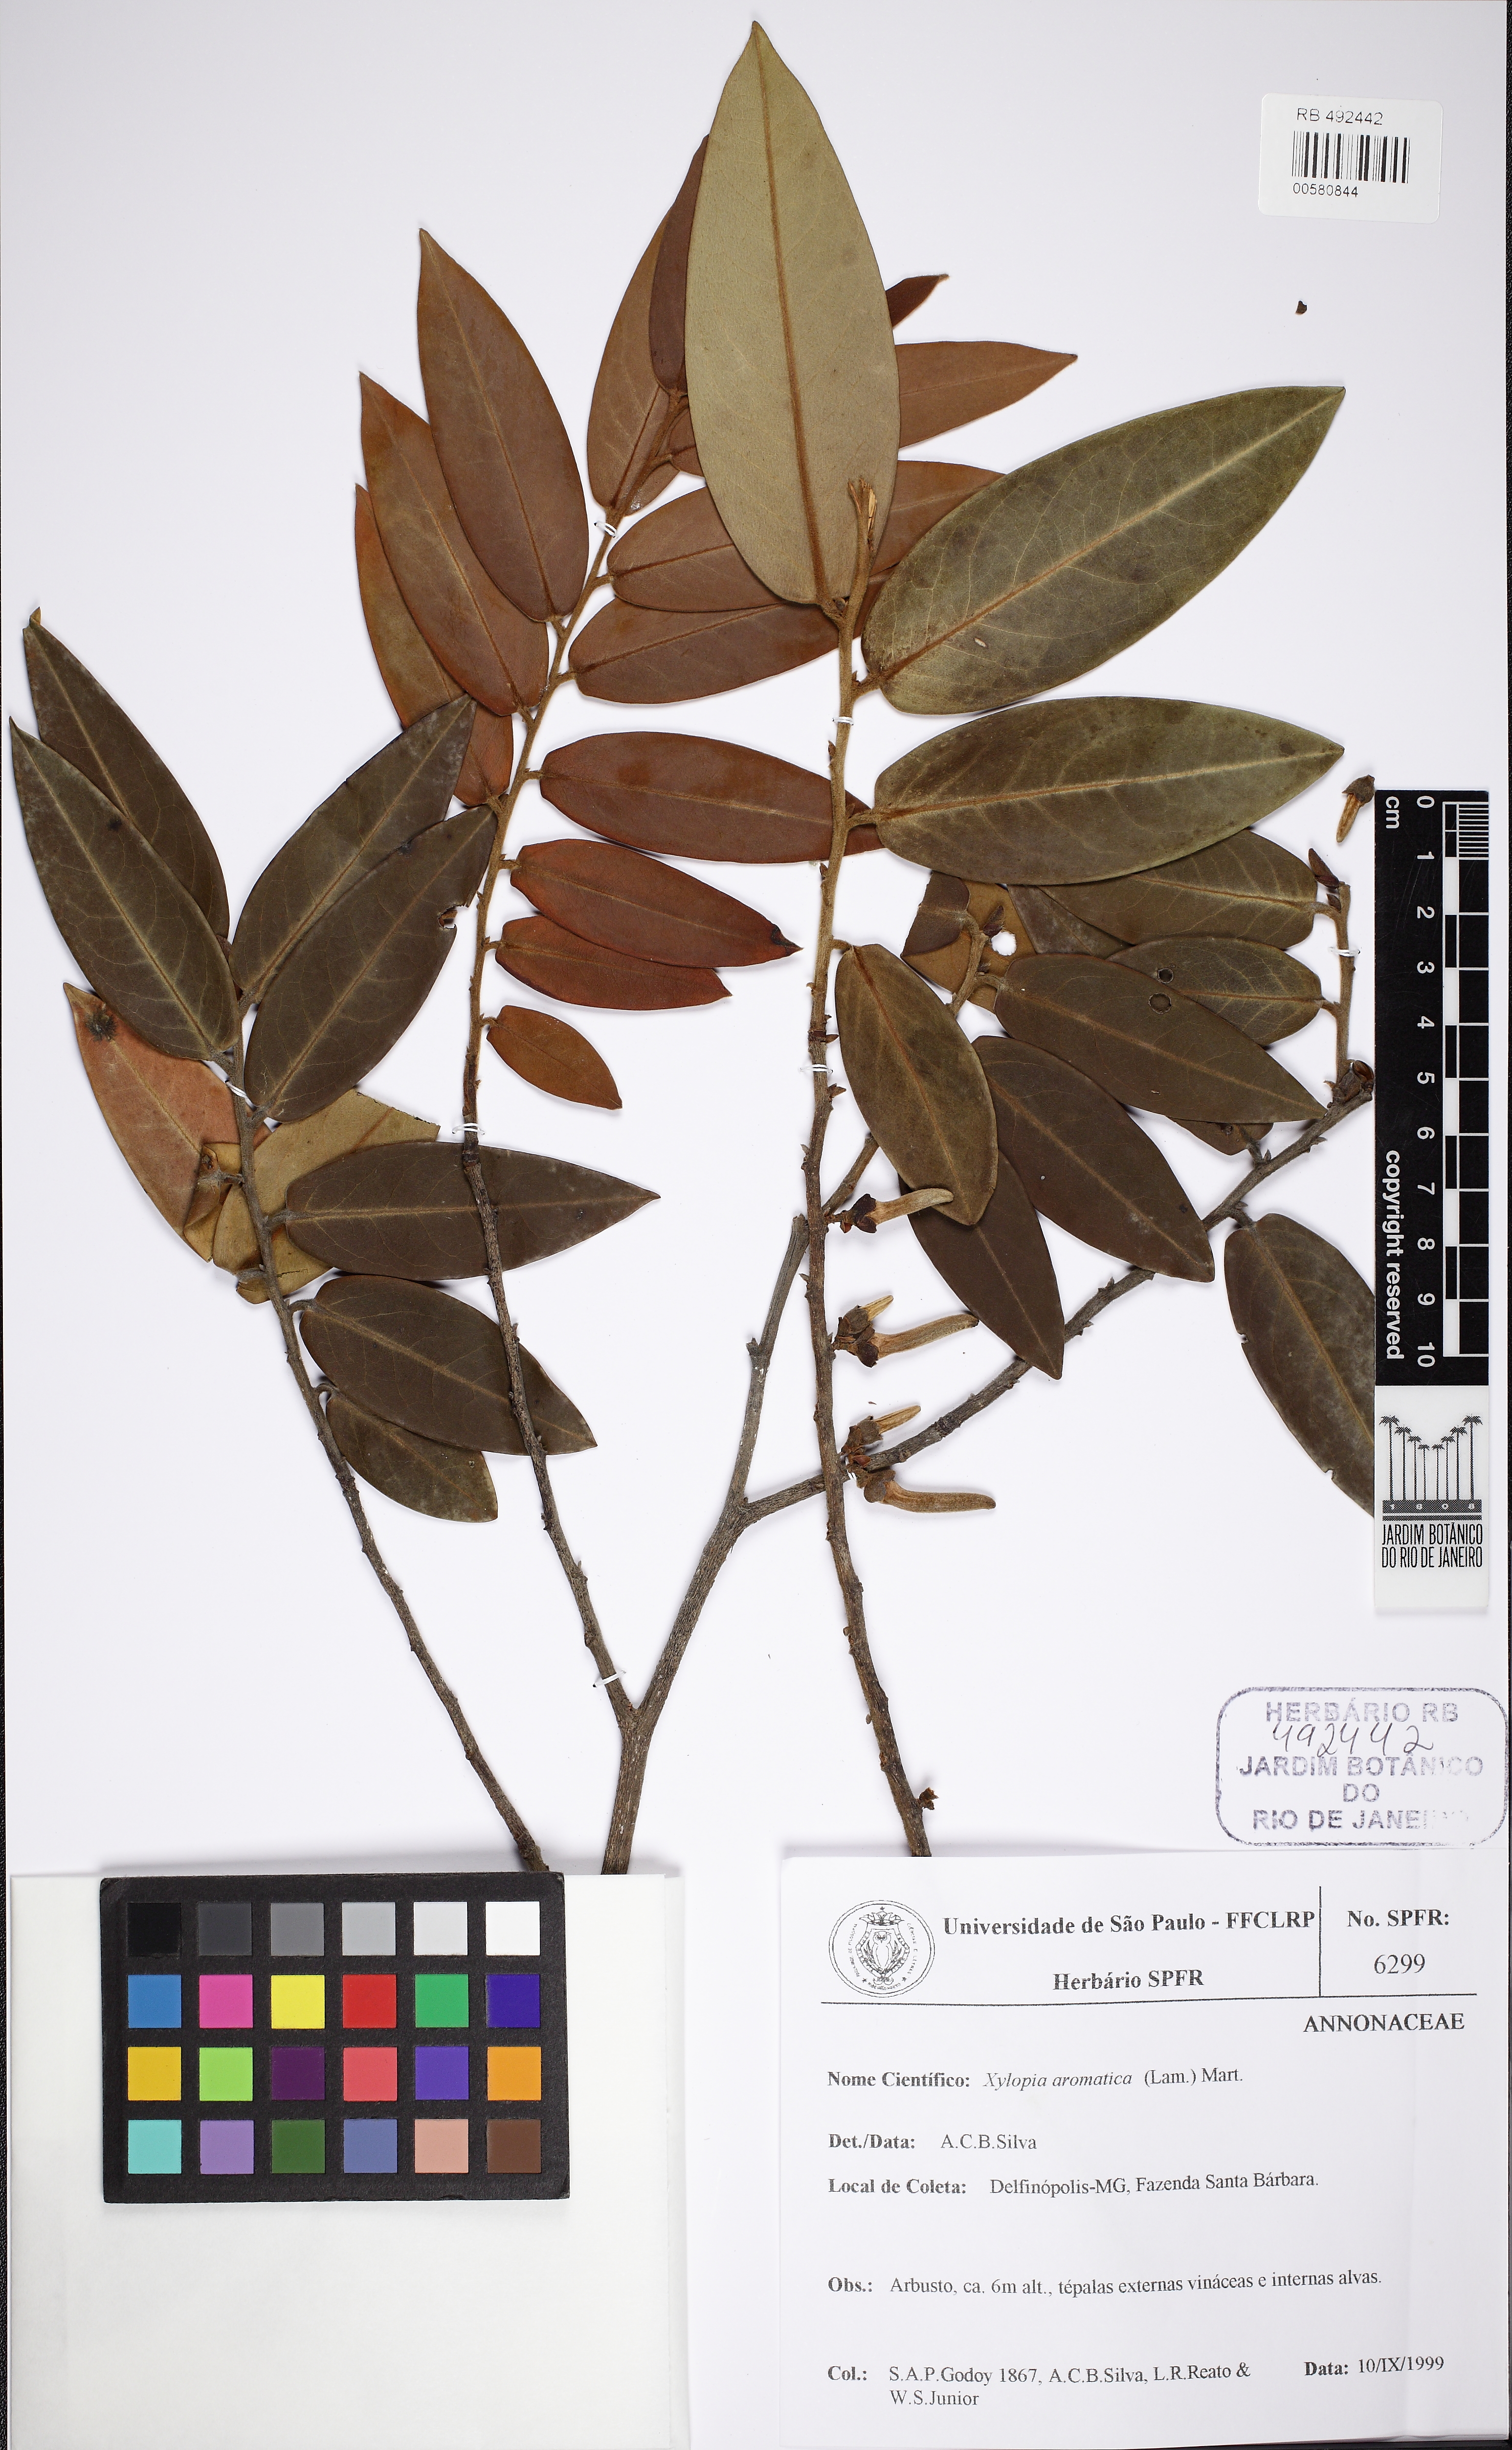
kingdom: Plantae
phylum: Tracheophyta
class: Magnoliopsida
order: Magnoliales
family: Annonaceae
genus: Xylopia
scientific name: Xylopia aromatica
